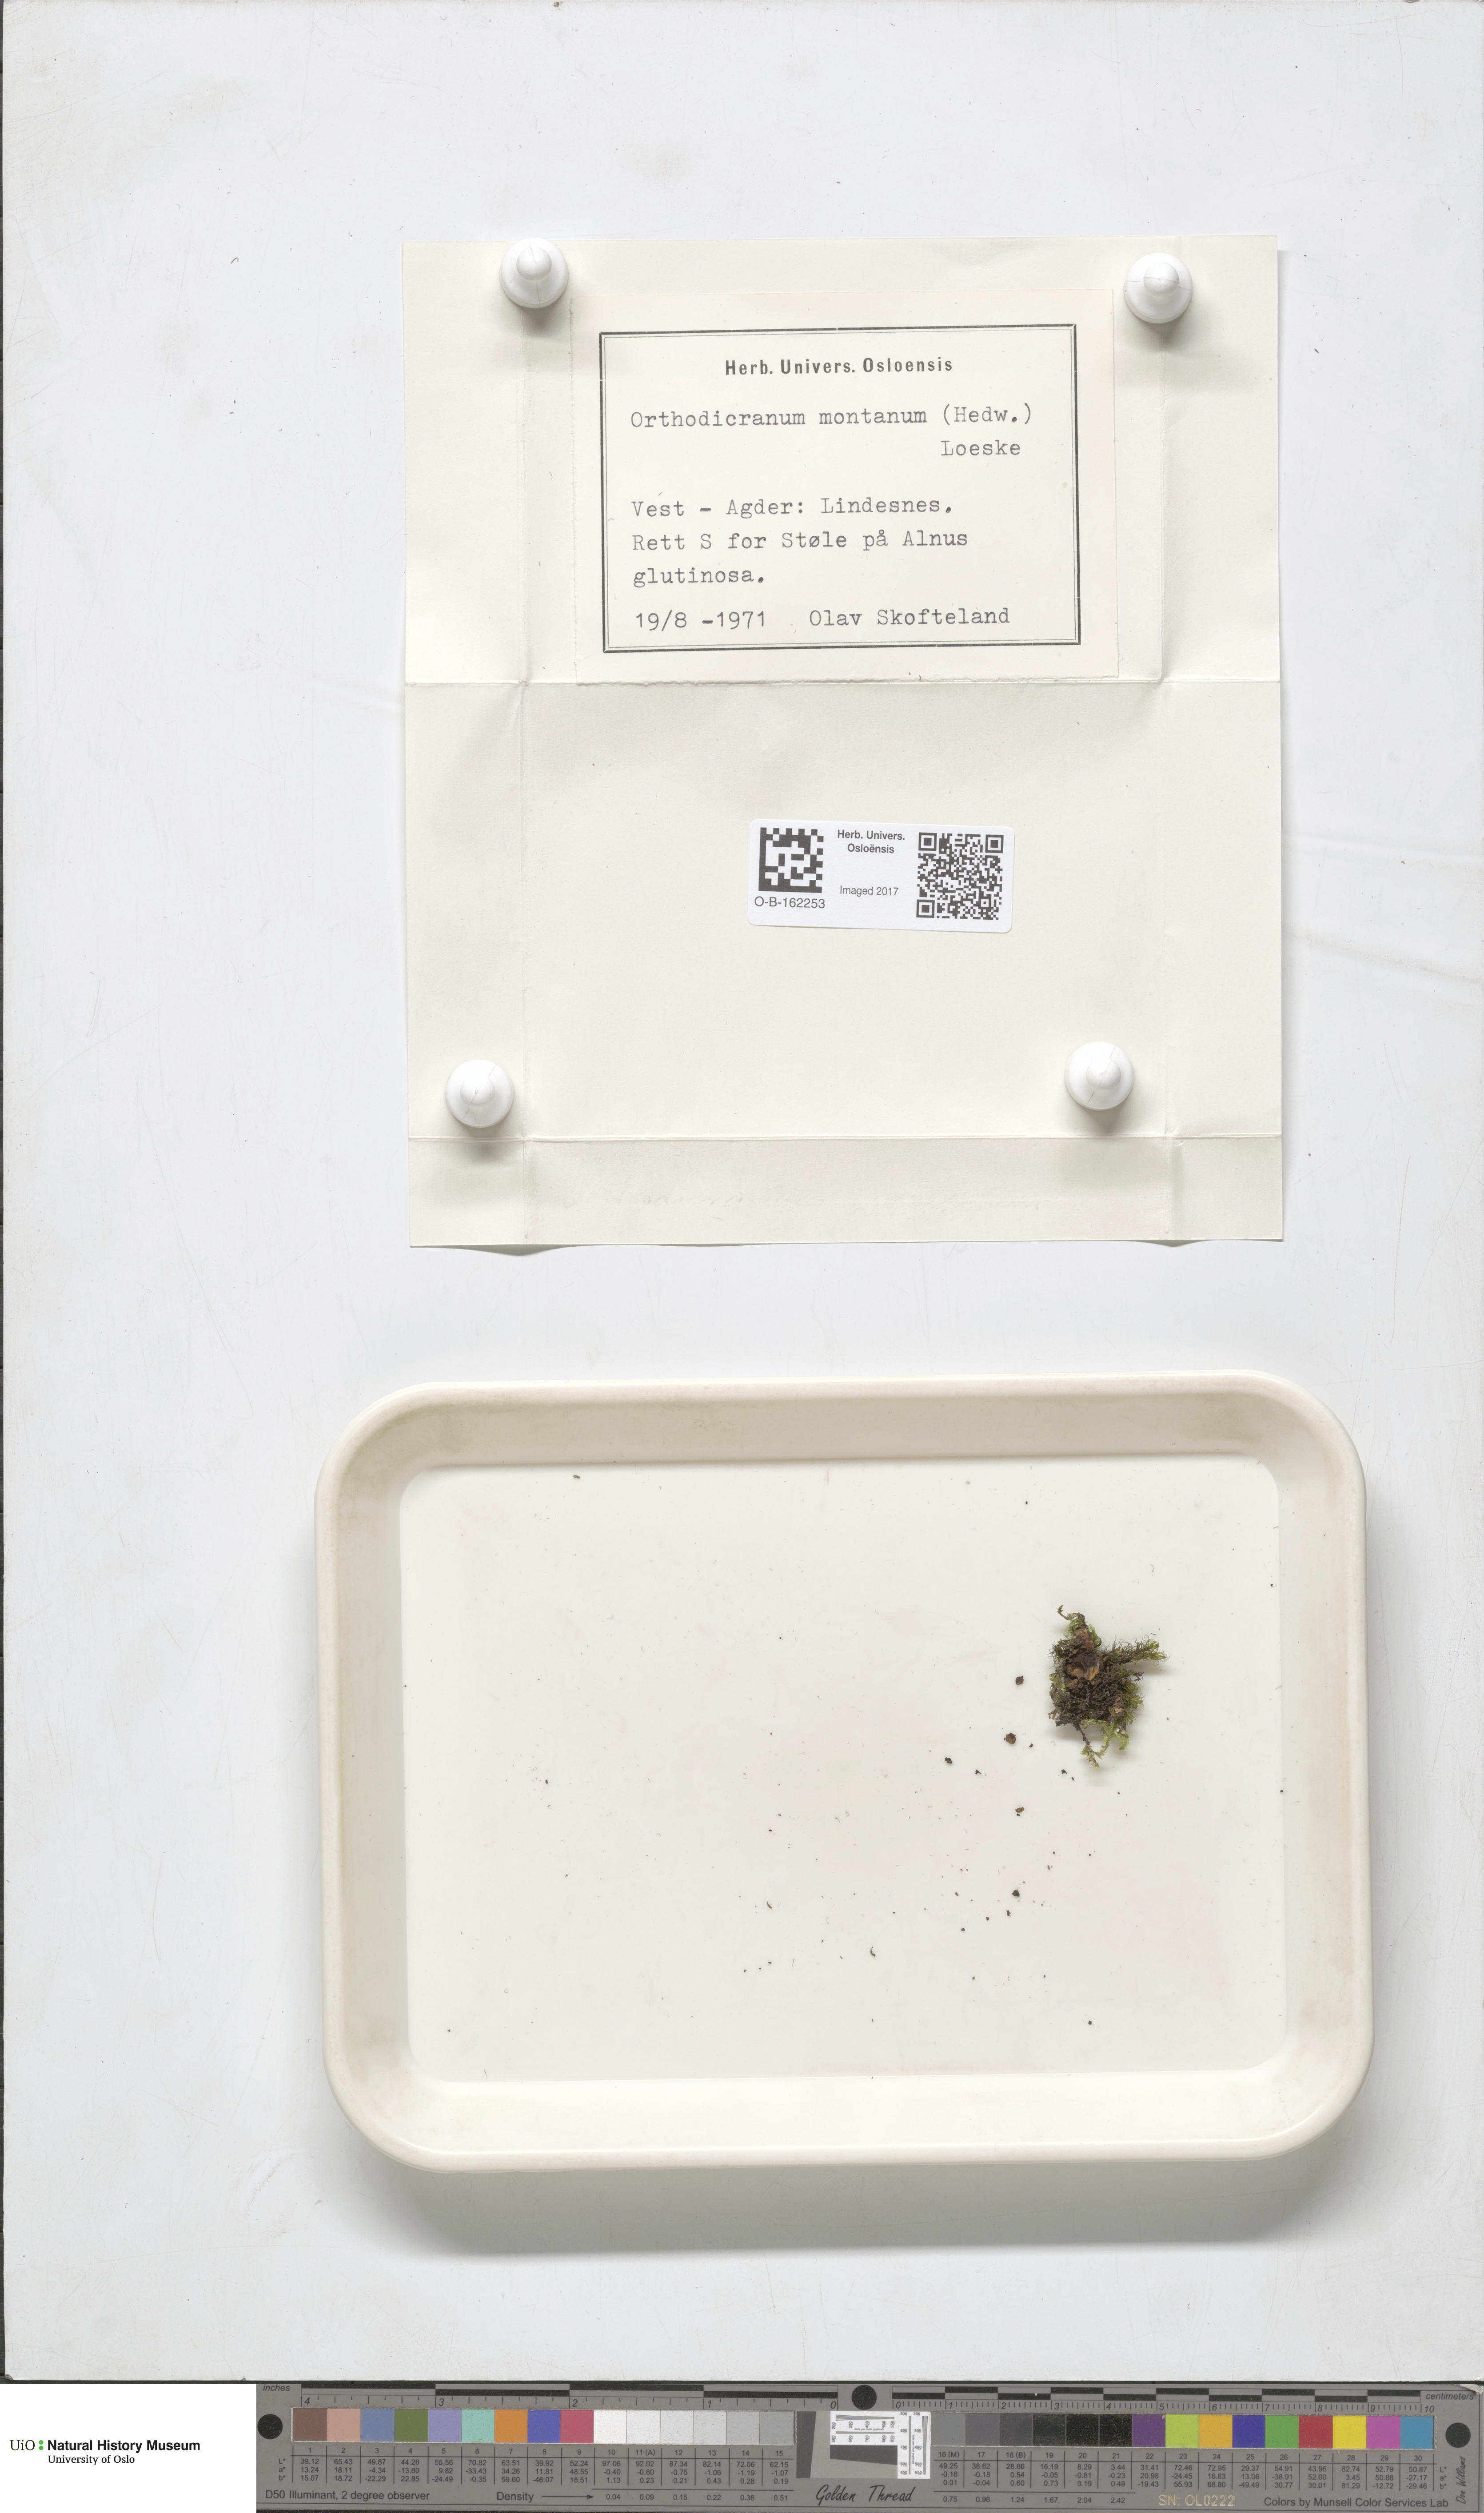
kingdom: Plantae
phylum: Bryophyta
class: Bryopsida
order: Dicranales
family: Dicranaceae
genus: Orthodicranum
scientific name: Orthodicranum montanum
